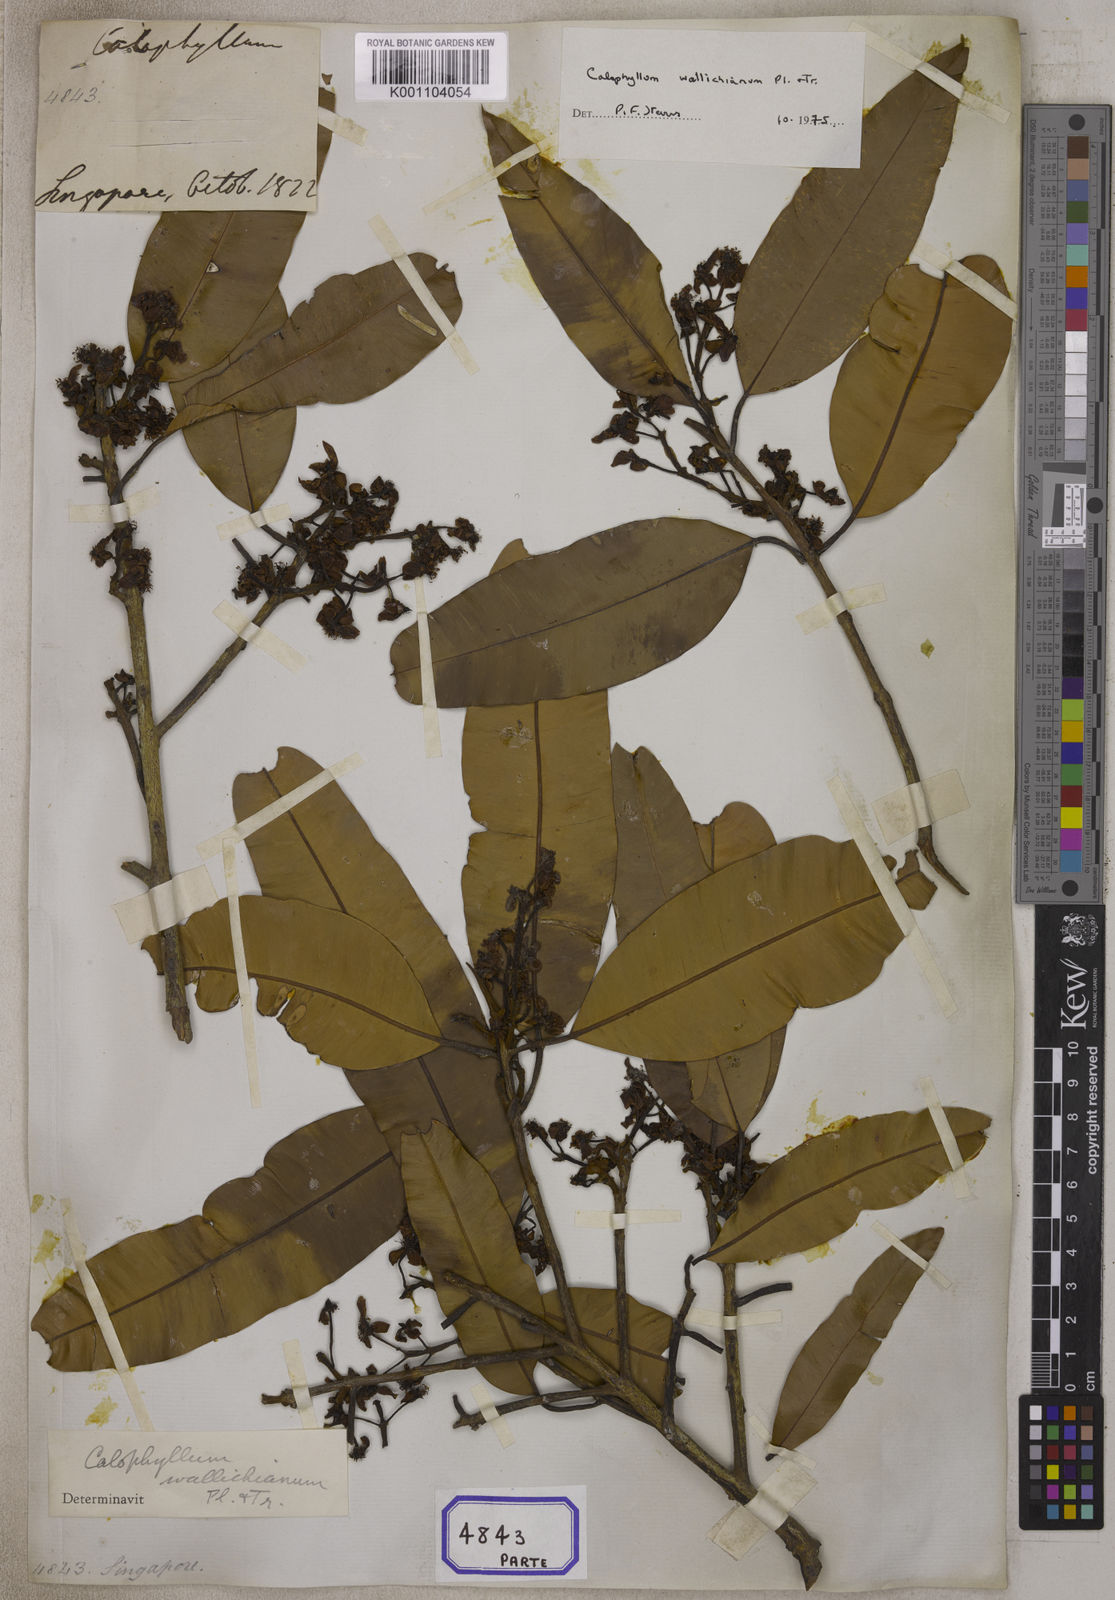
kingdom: Plantae
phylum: Tracheophyta
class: Magnoliopsida
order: Malpighiales
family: Calophyllaceae
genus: Calophyllum
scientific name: Calophyllum soulattri
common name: Bitangoor boonot
